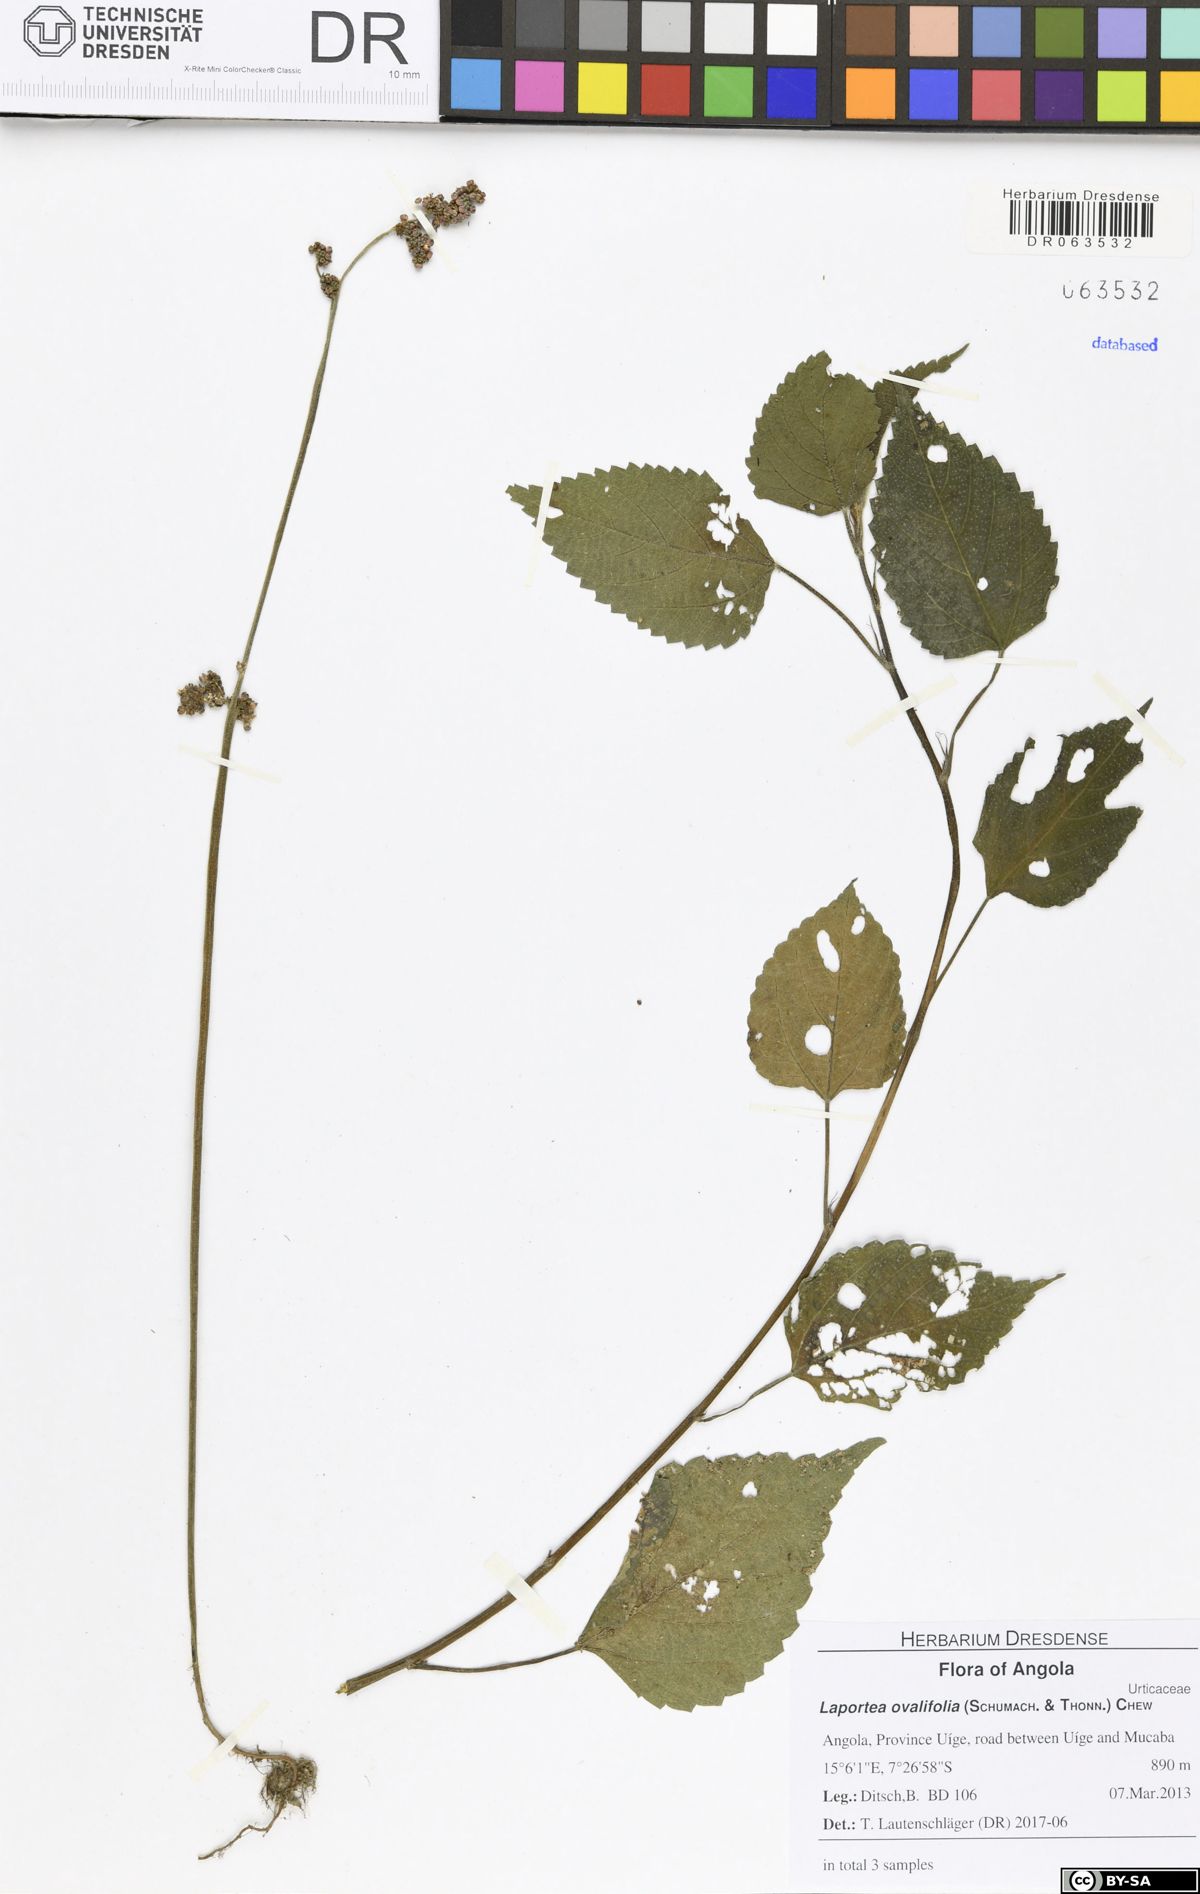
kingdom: Plantae
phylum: Tracheophyta
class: Magnoliopsida
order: Rosales
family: Urticaceae
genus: Laportea
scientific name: Laportea ovalifolia
